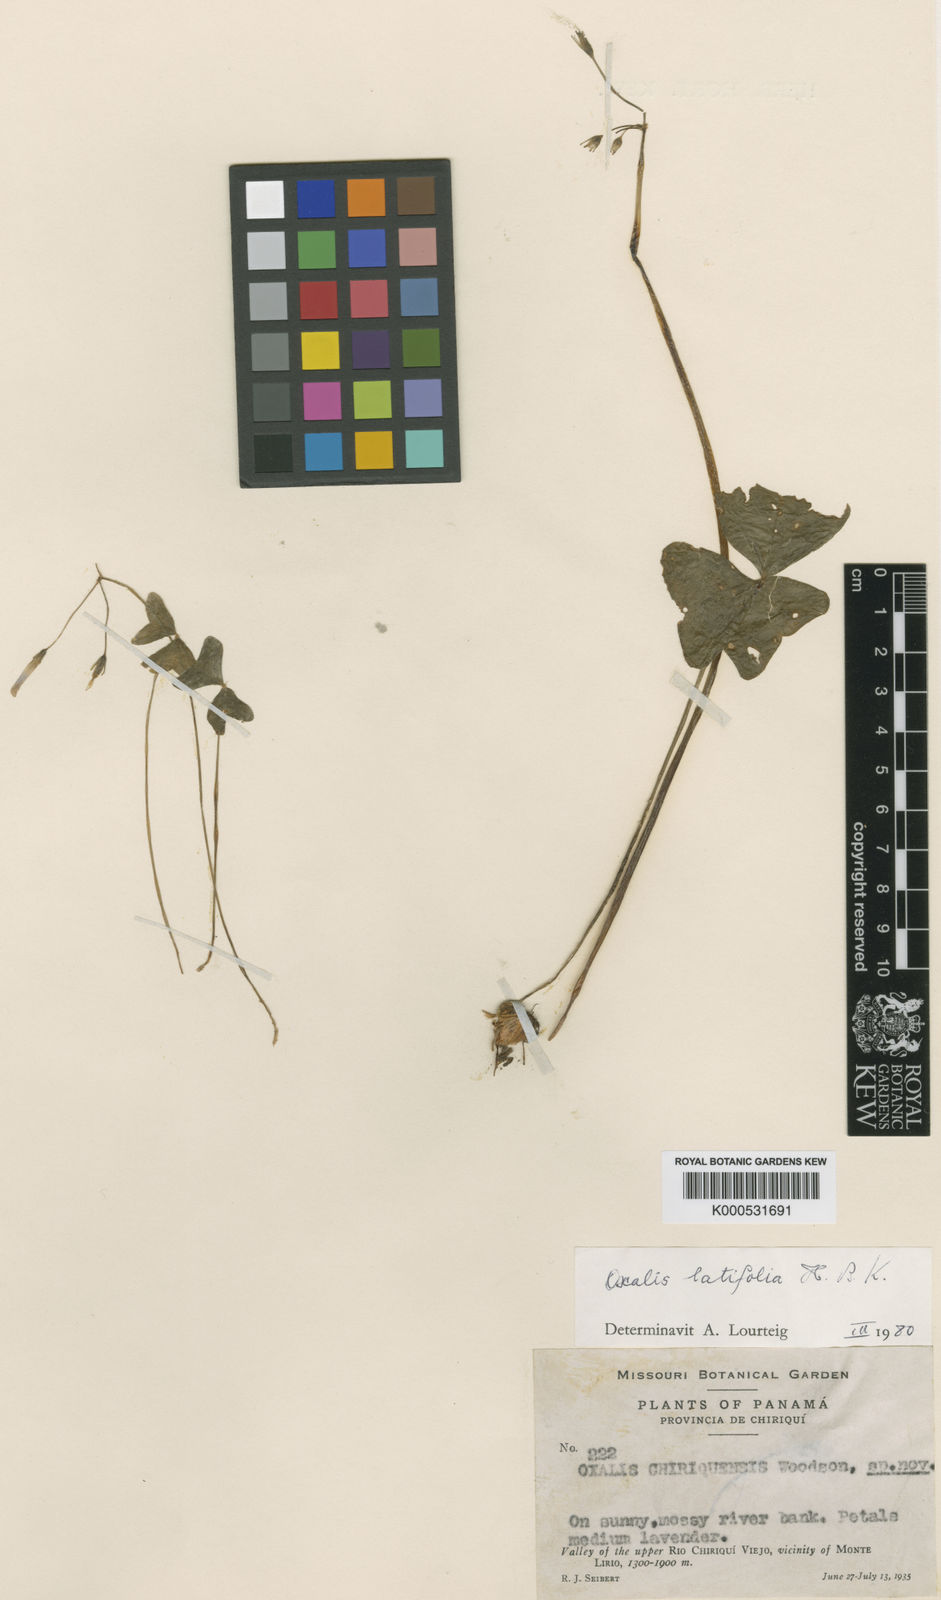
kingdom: Plantae
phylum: Tracheophyta
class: Magnoliopsida
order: Oxalidales
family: Oxalidaceae
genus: Oxalis
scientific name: Oxalis latifolia
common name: Garden pink-sorrel
